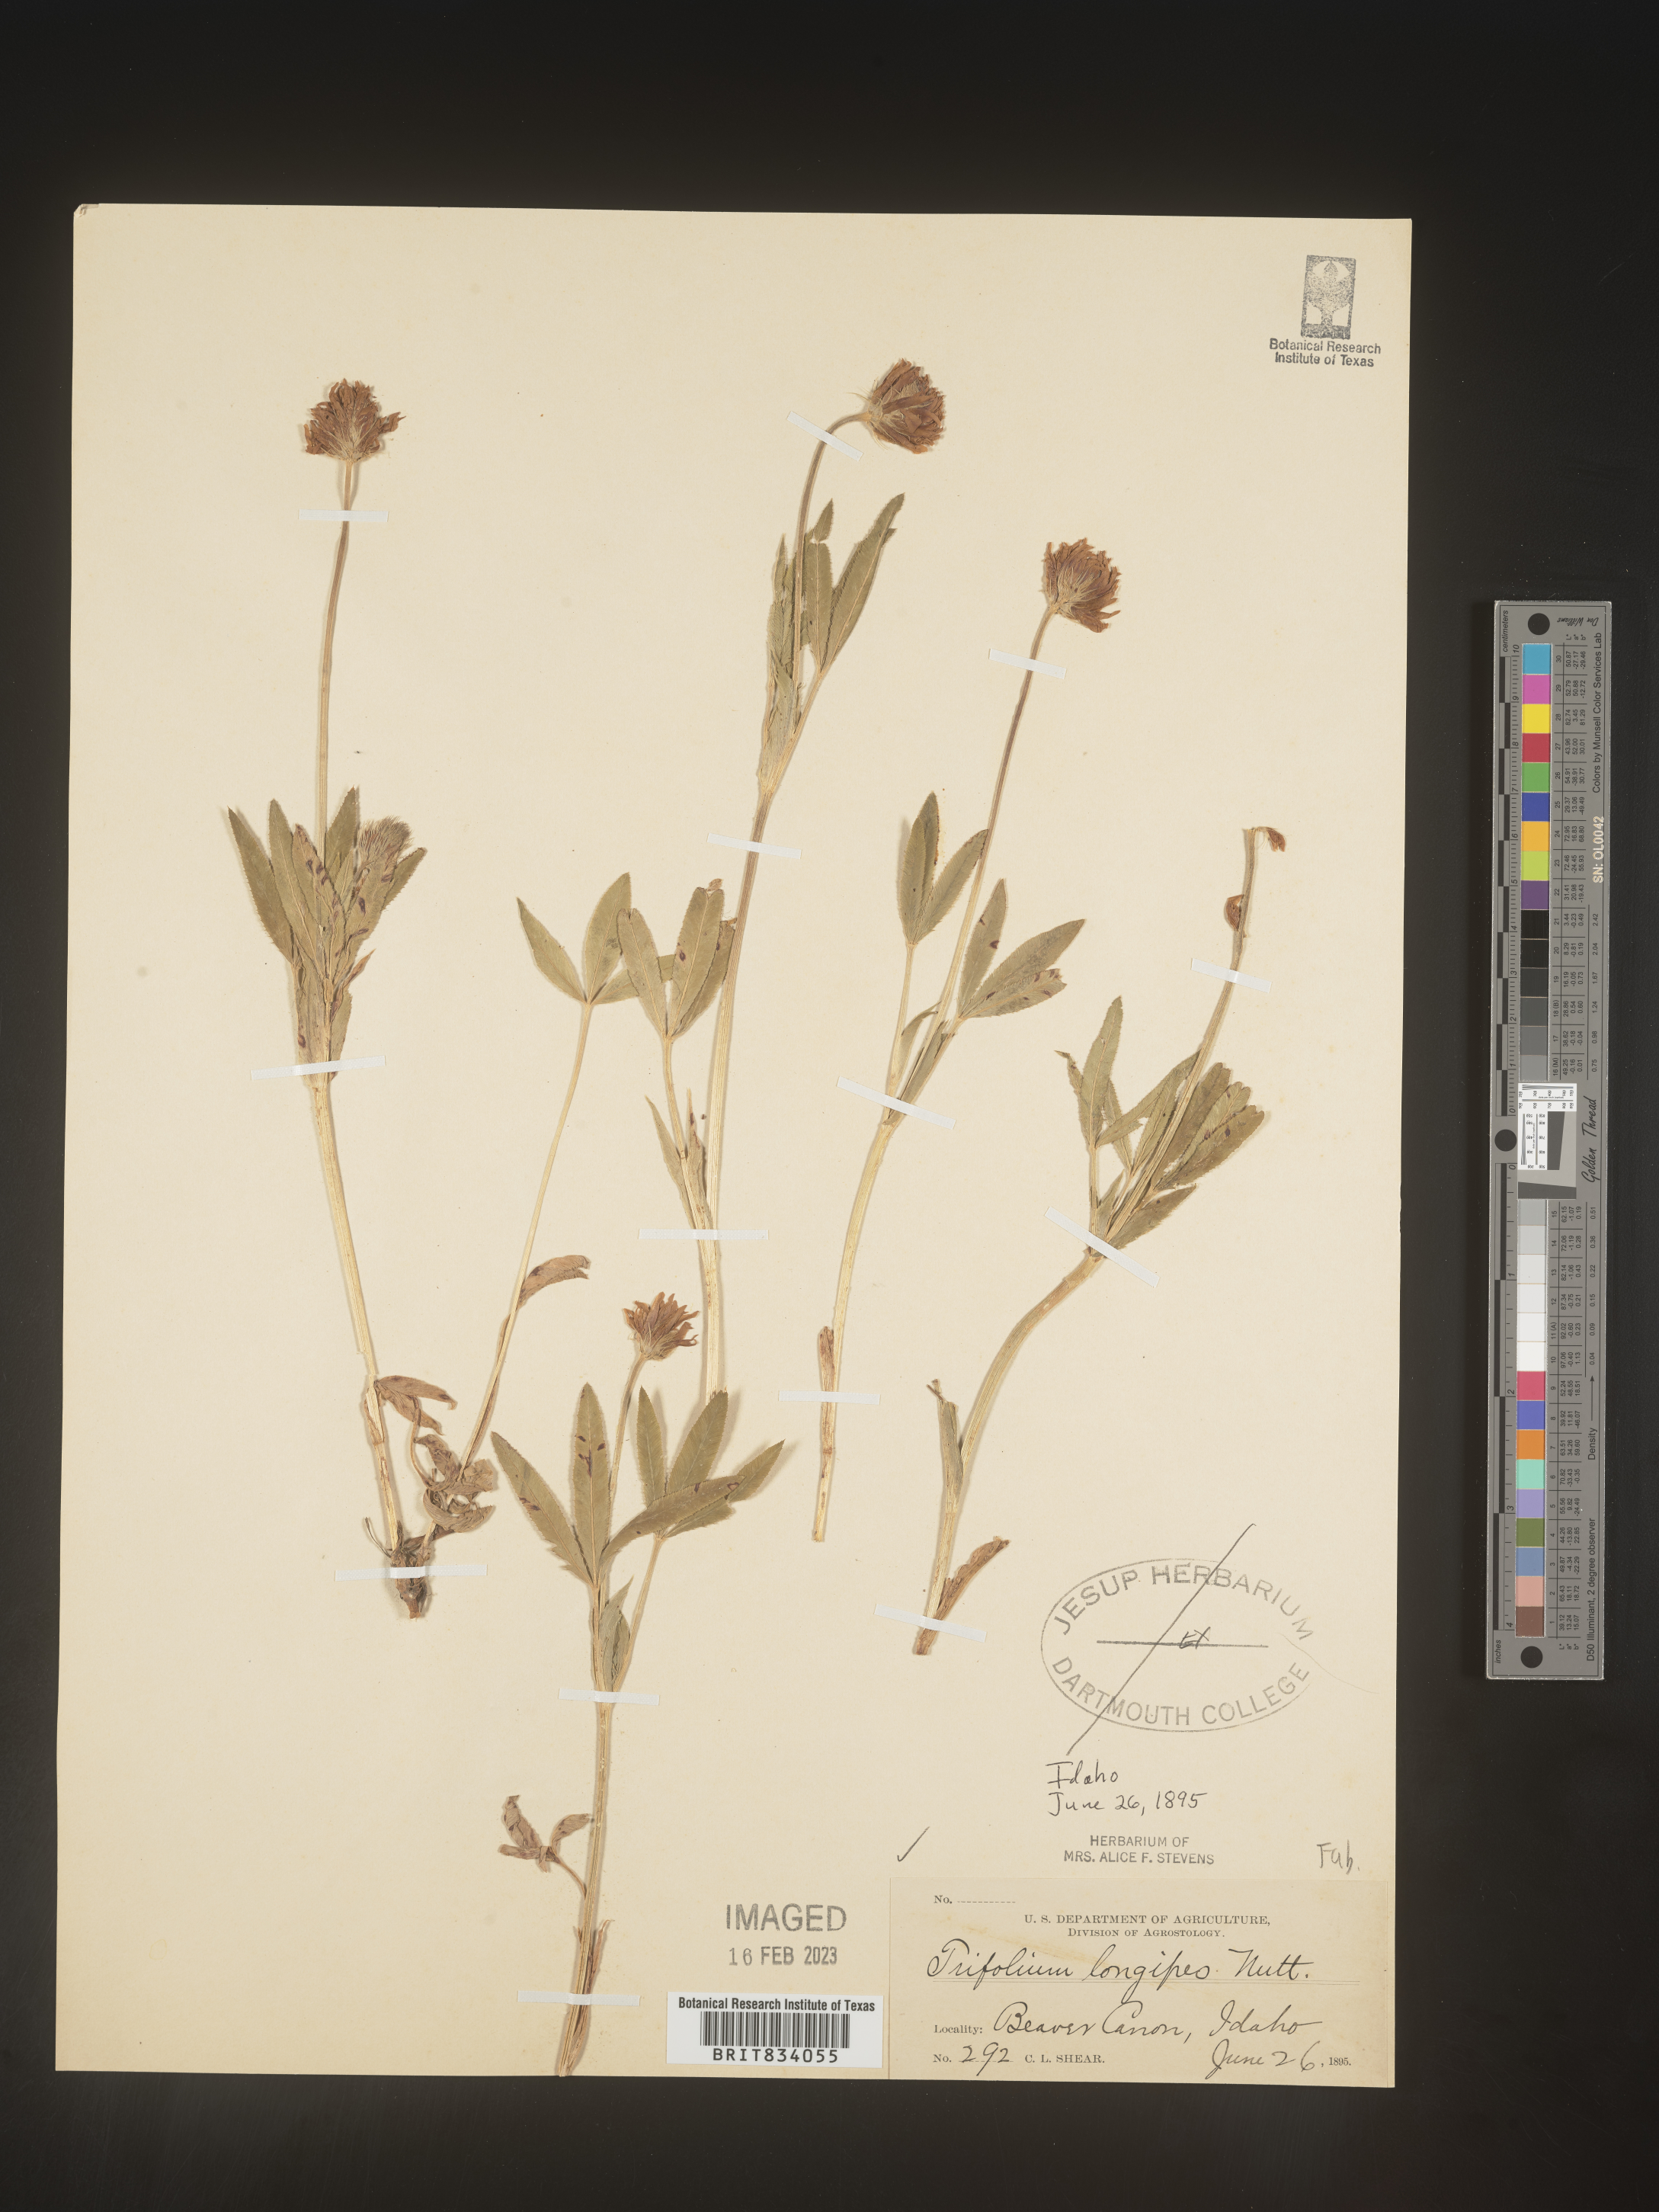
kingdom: Plantae
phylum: Tracheophyta
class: Magnoliopsida
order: Fabales
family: Fabaceae
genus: Trifolium
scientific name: Trifolium
